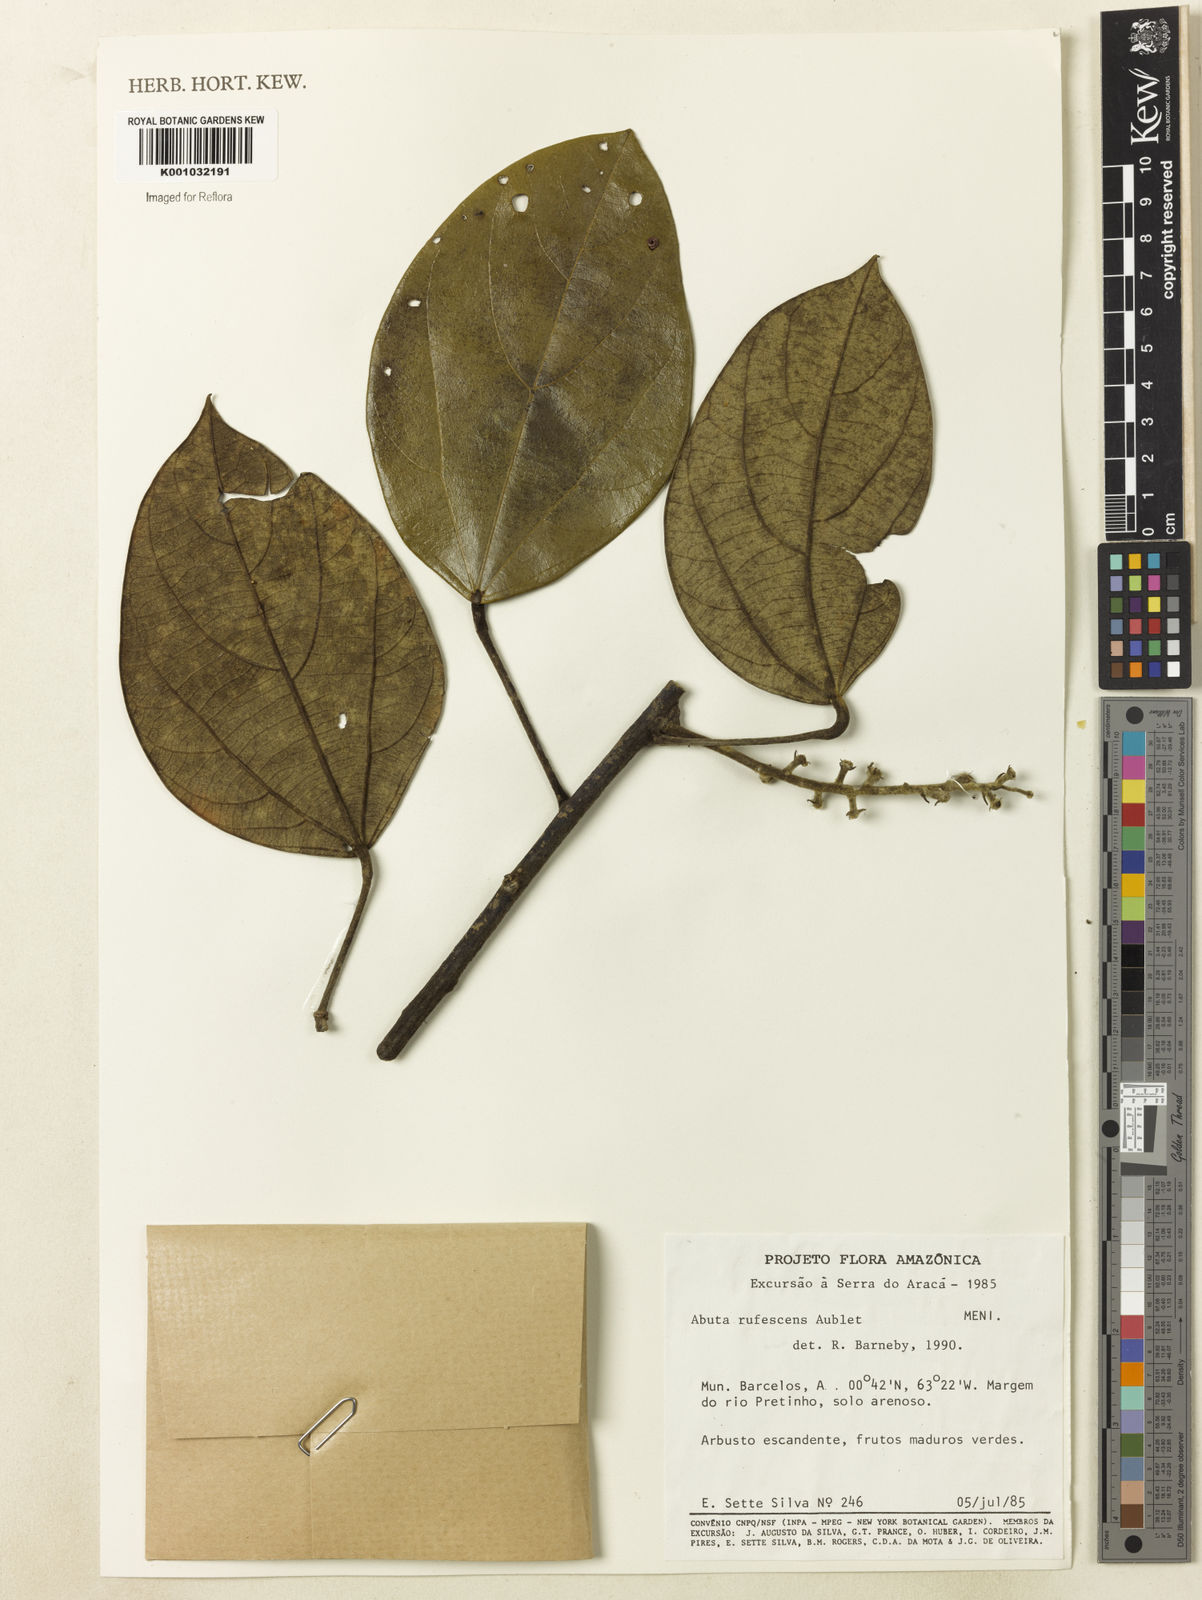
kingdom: Plantae
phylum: Tracheophyta
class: Magnoliopsida
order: Ranunculales
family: Menispermaceae
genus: Abuta
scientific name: Abuta
